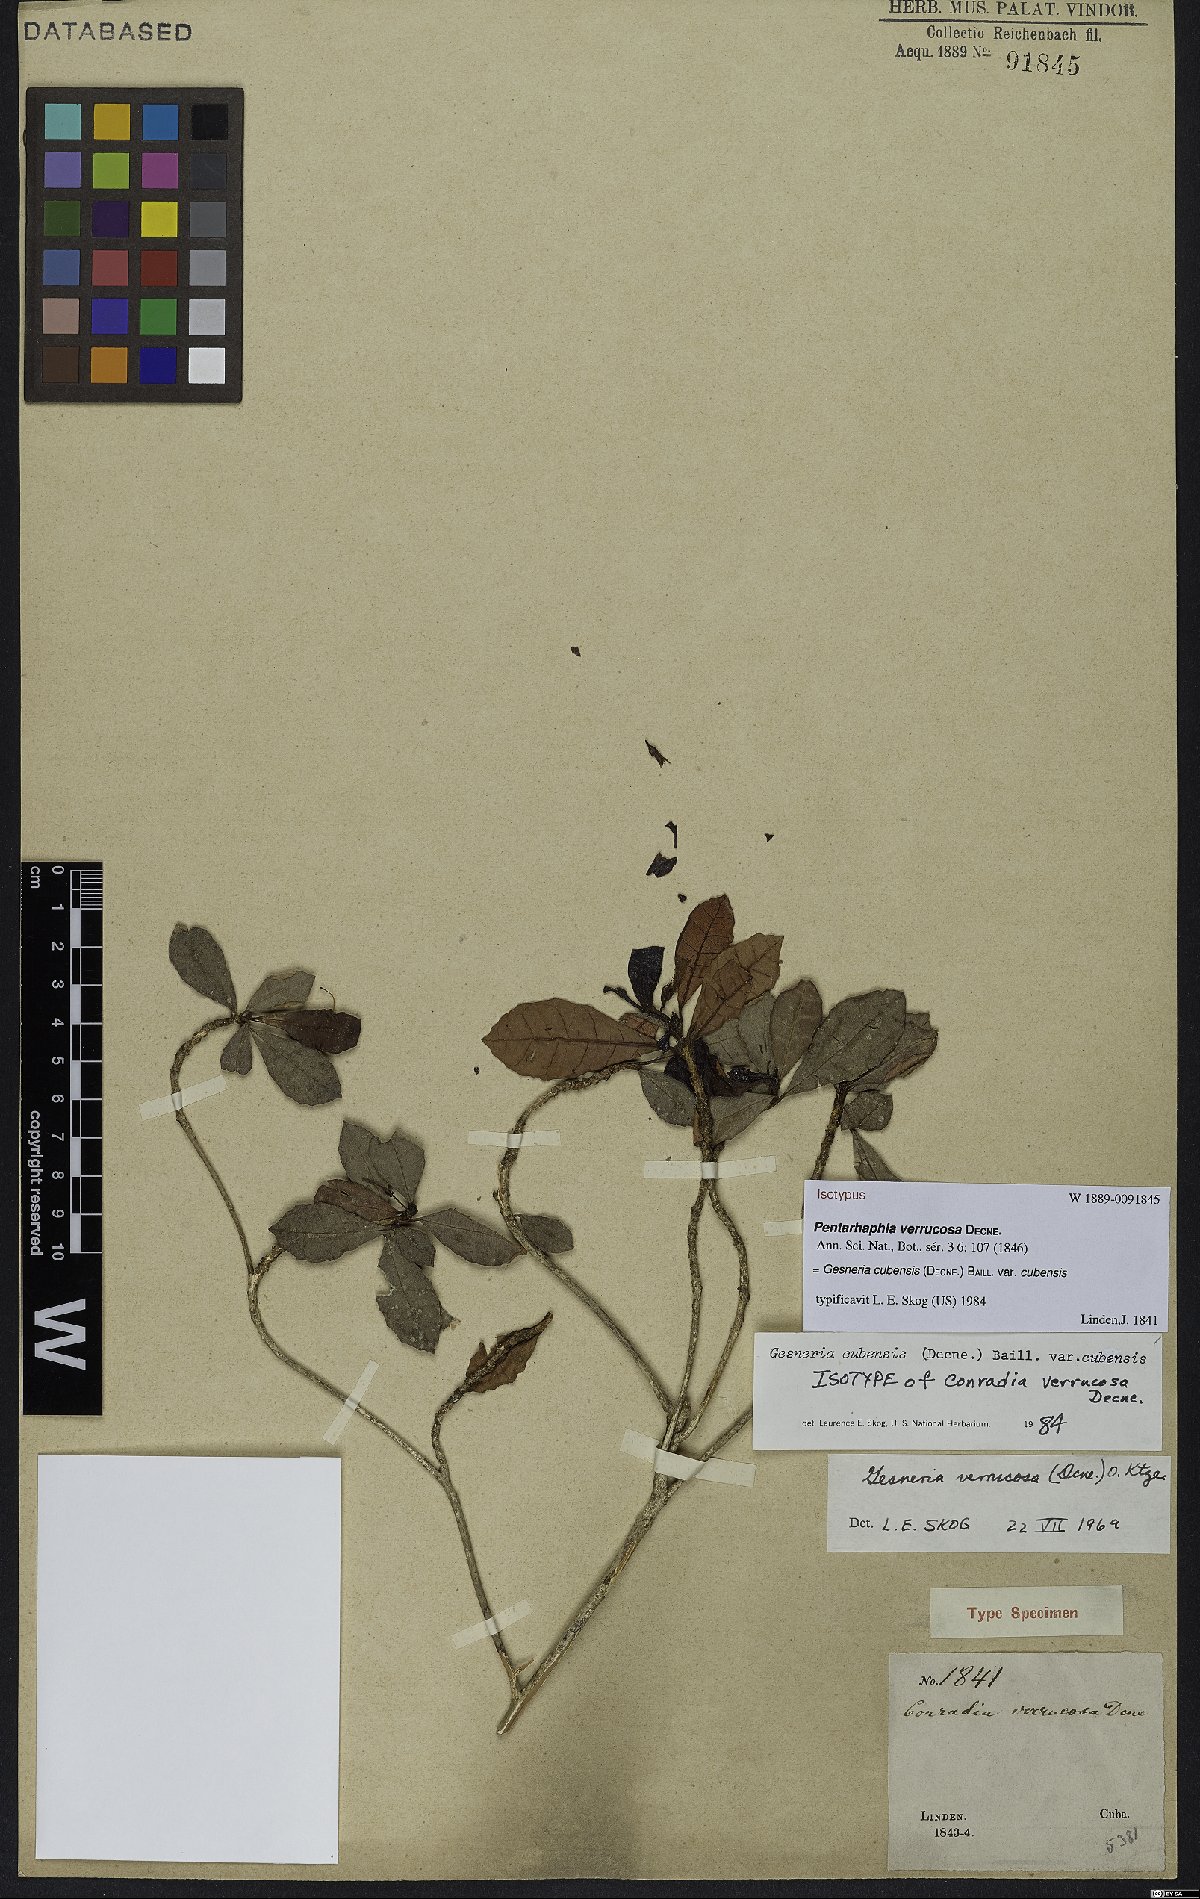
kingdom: Plantae
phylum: Tracheophyta
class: Magnoliopsida
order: Lamiales
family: Gesneriaceae
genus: Gesneria
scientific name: Gesneria cubensis
